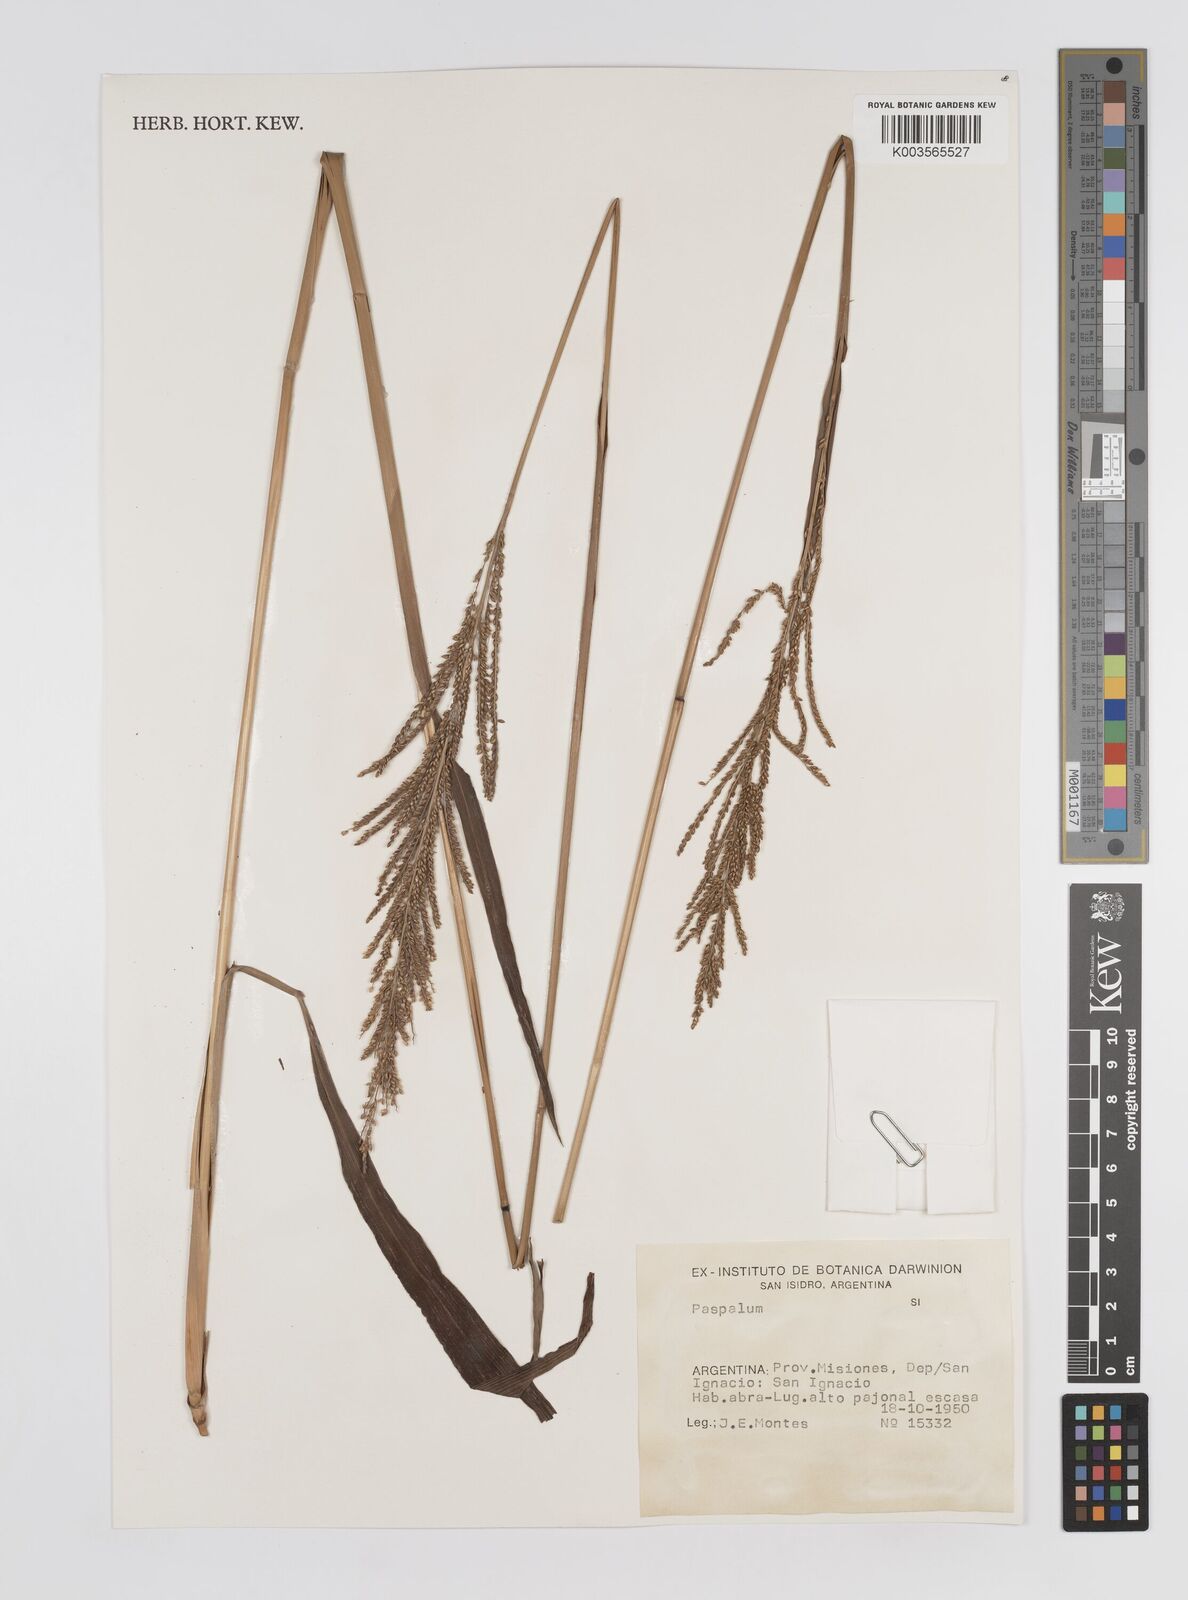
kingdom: Plantae
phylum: Tracheophyta
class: Liliopsida
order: Poales
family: Poaceae
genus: Paspalum
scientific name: Paspalum
